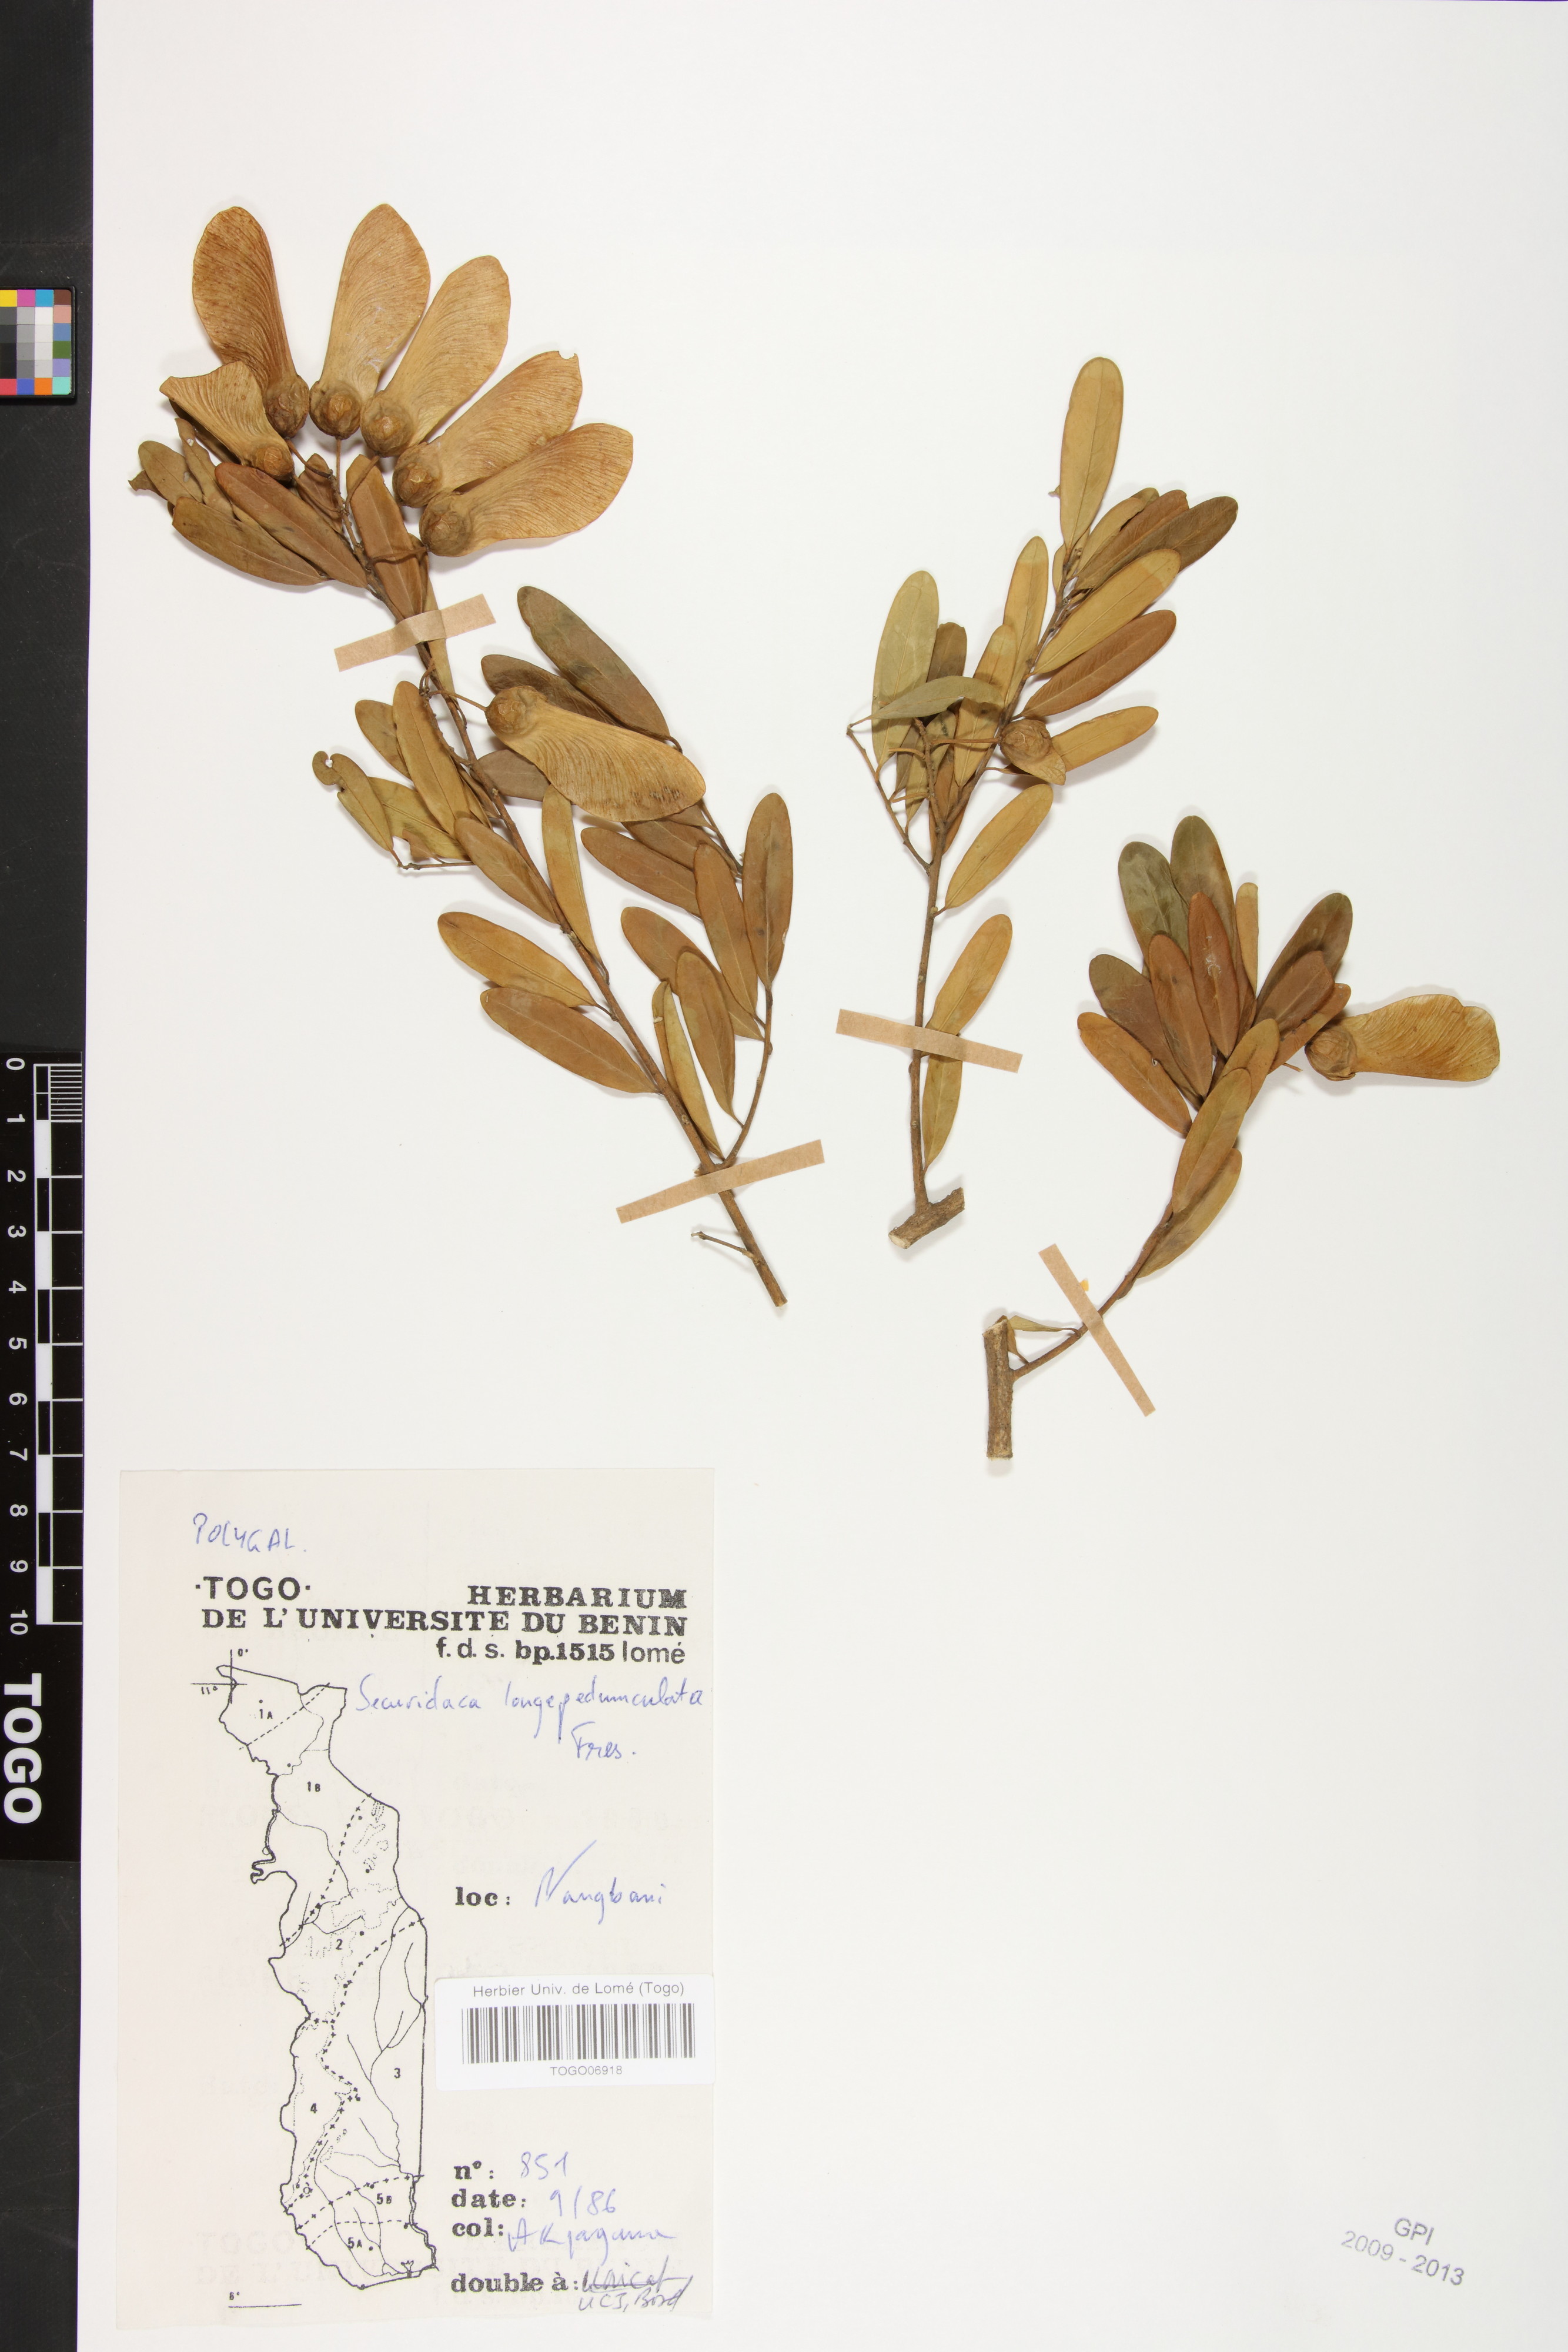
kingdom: Plantae
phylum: Tracheophyta
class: Magnoliopsida
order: Fabales
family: Polygalaceae
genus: Securidaca
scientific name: Securidaca longepedunculata
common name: Violet tree
